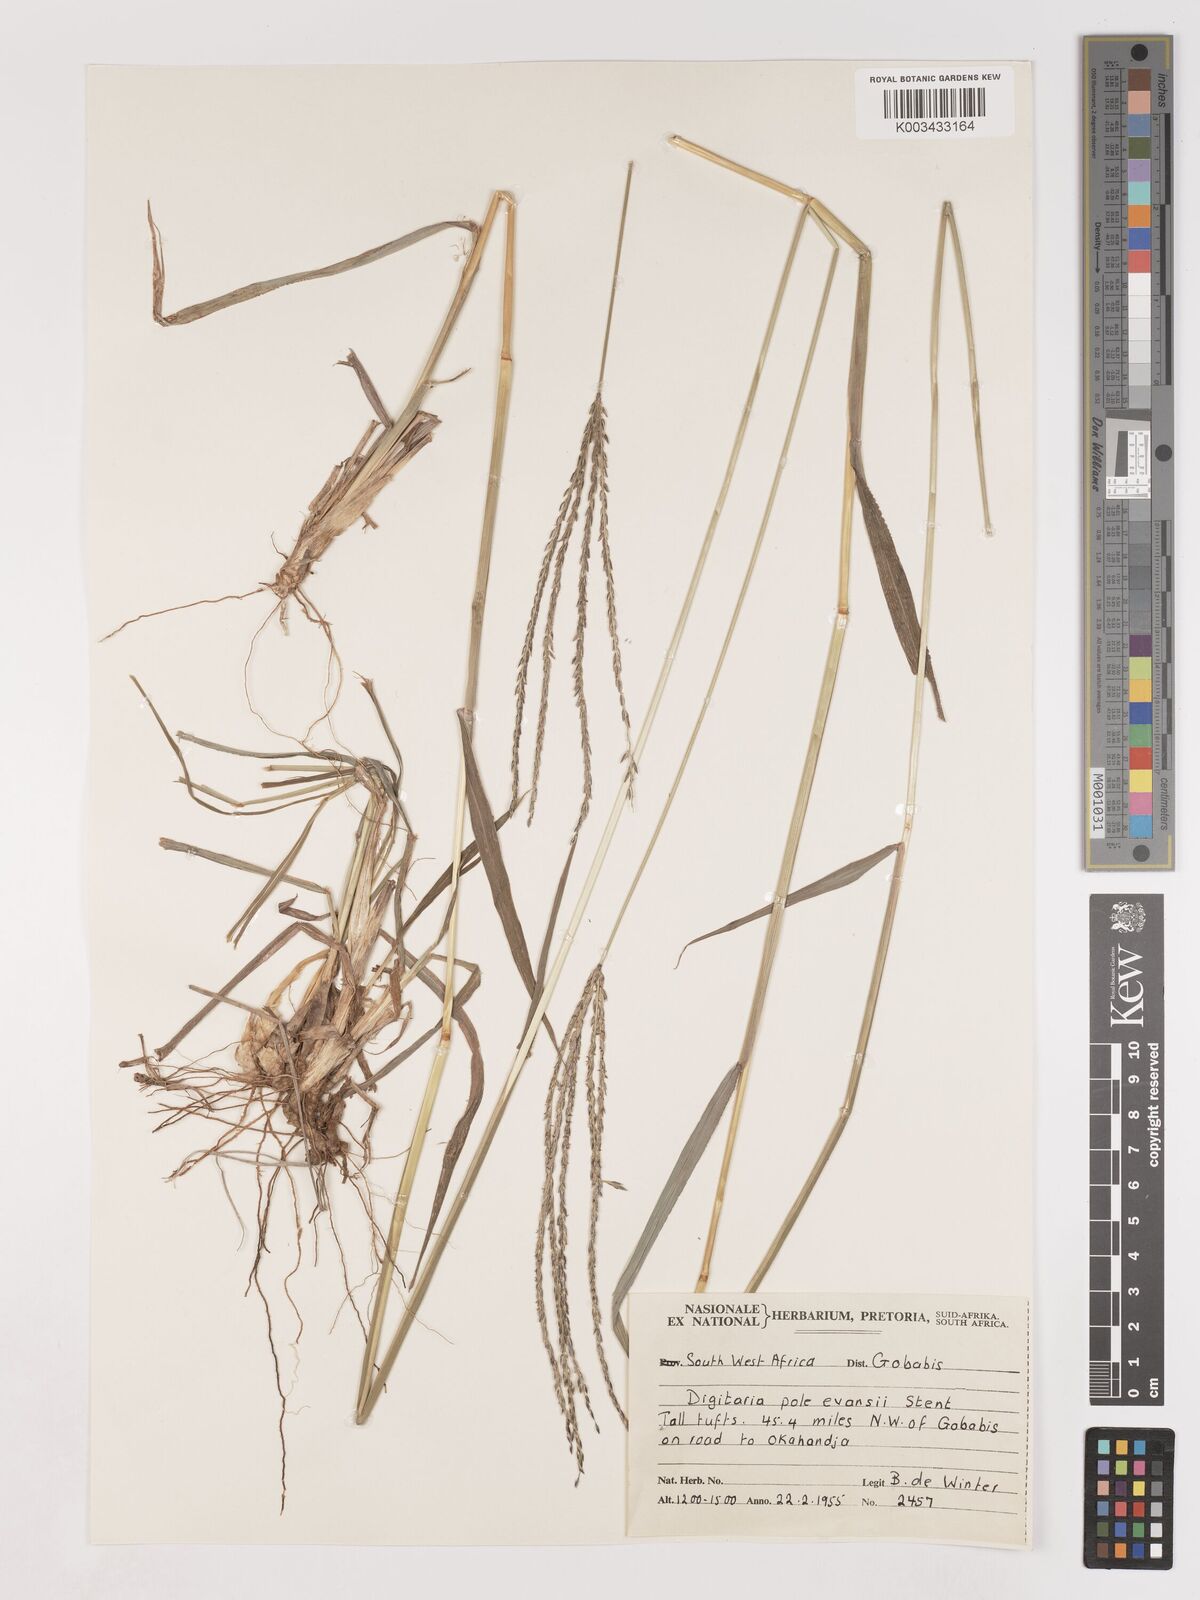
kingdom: Plantae
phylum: Tracheophyta
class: Liliopsida
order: Poales
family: Poaceae
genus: Digitaria
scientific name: Digitaria milanjiana
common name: Madagascar crabgrass
